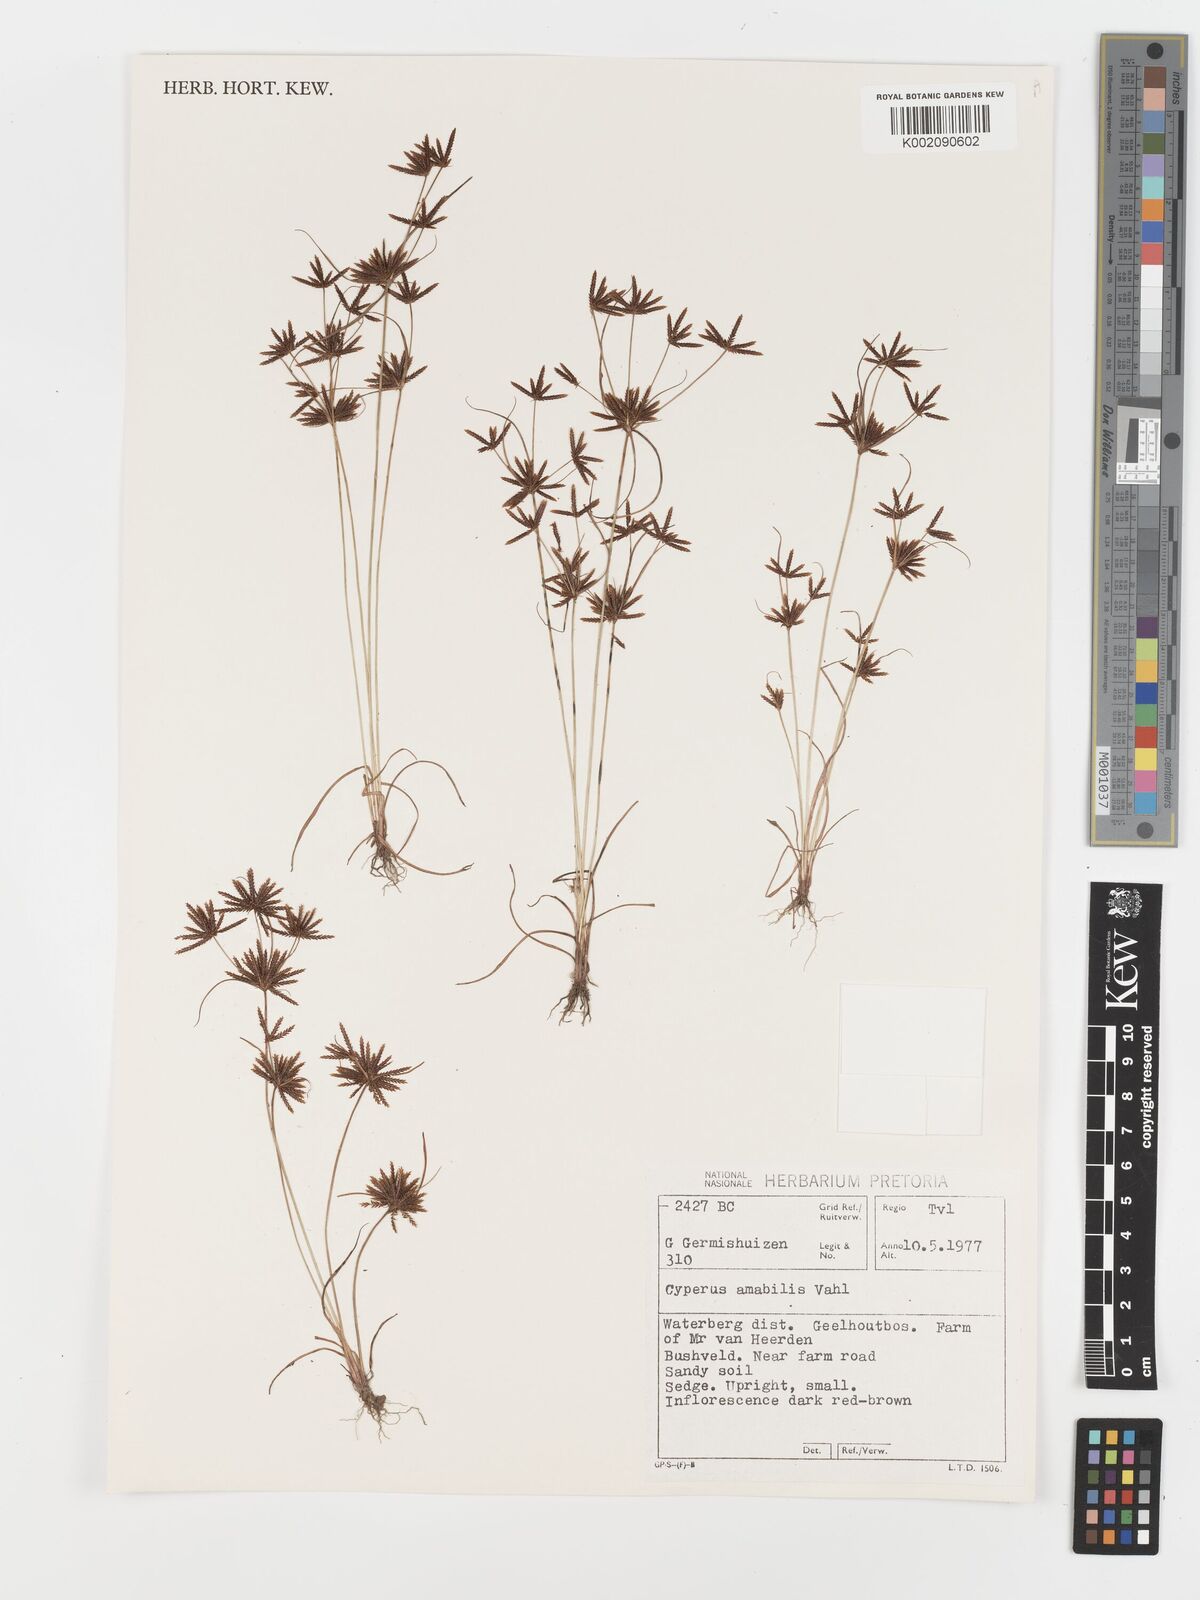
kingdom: Plantae
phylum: Tracheophyta
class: Liliopsida
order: Poales
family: Cyperaceae
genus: Cyperus
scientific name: Cyperus amabilis
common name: Foothill flat sedge
